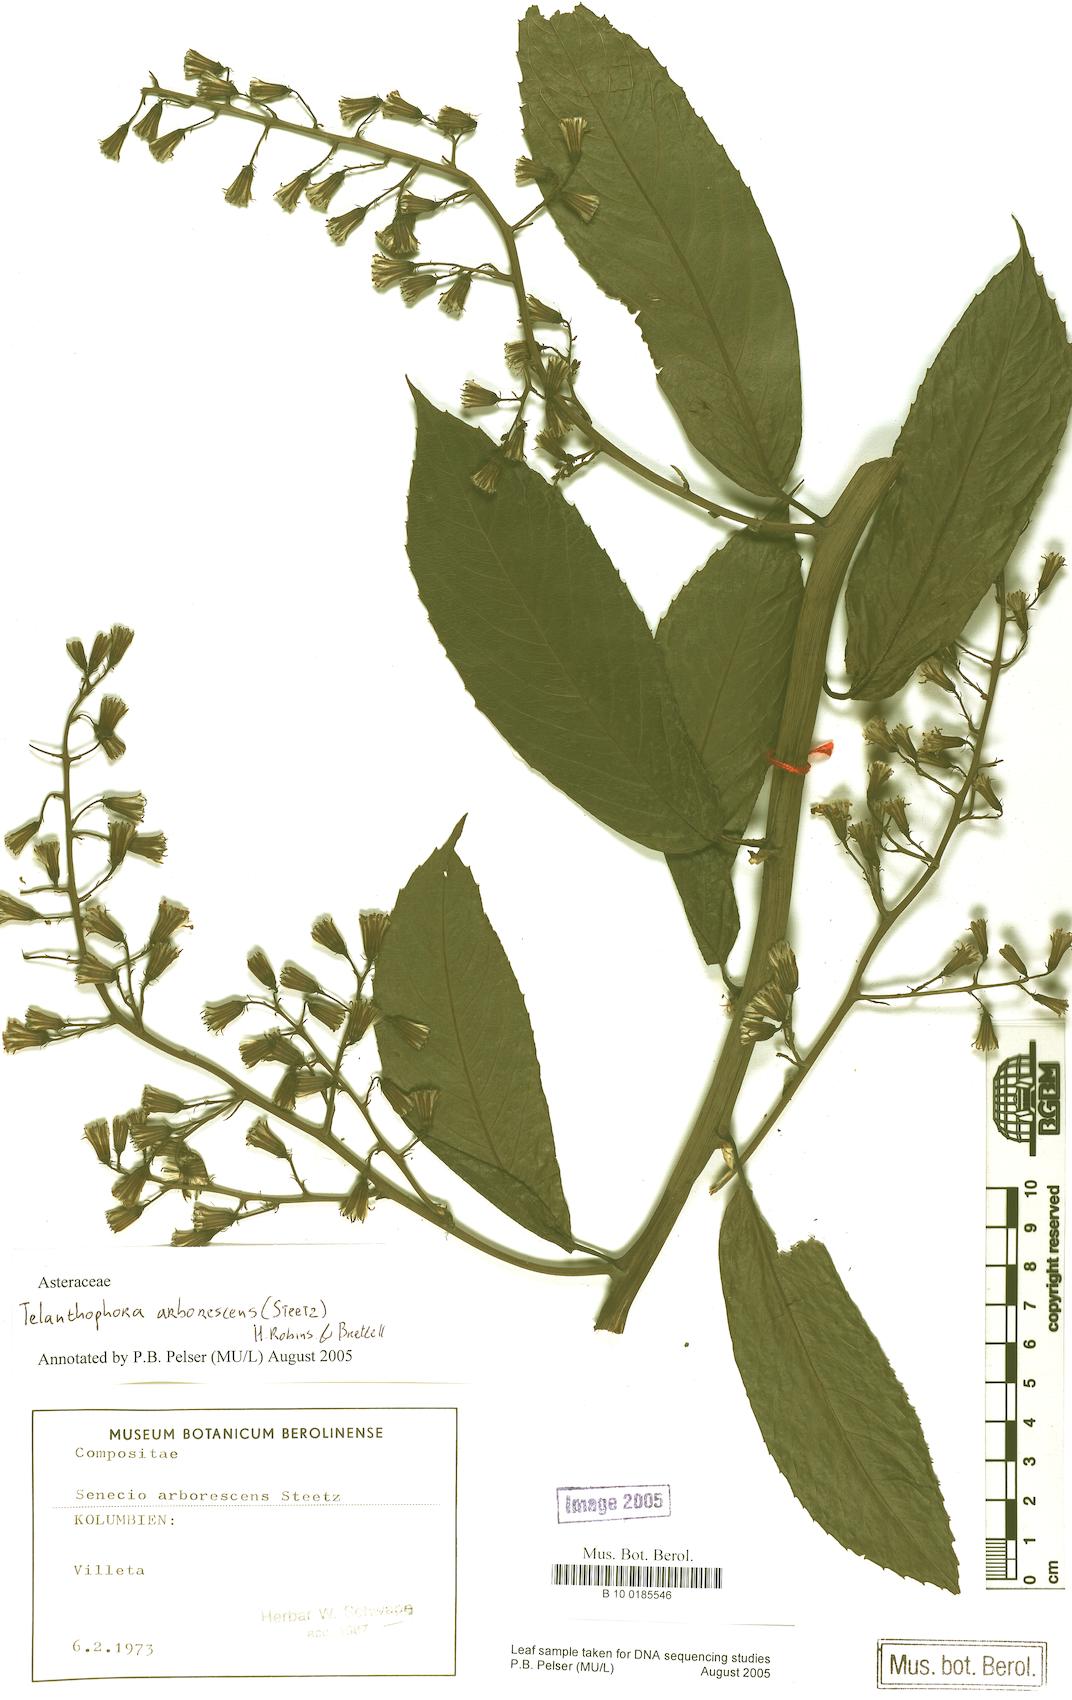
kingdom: Plantae
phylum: Tracheophyta
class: Magnoliopsida
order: Asterales
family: Asteraceae
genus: Telanthophora
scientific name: Telanthophora grandifolia
